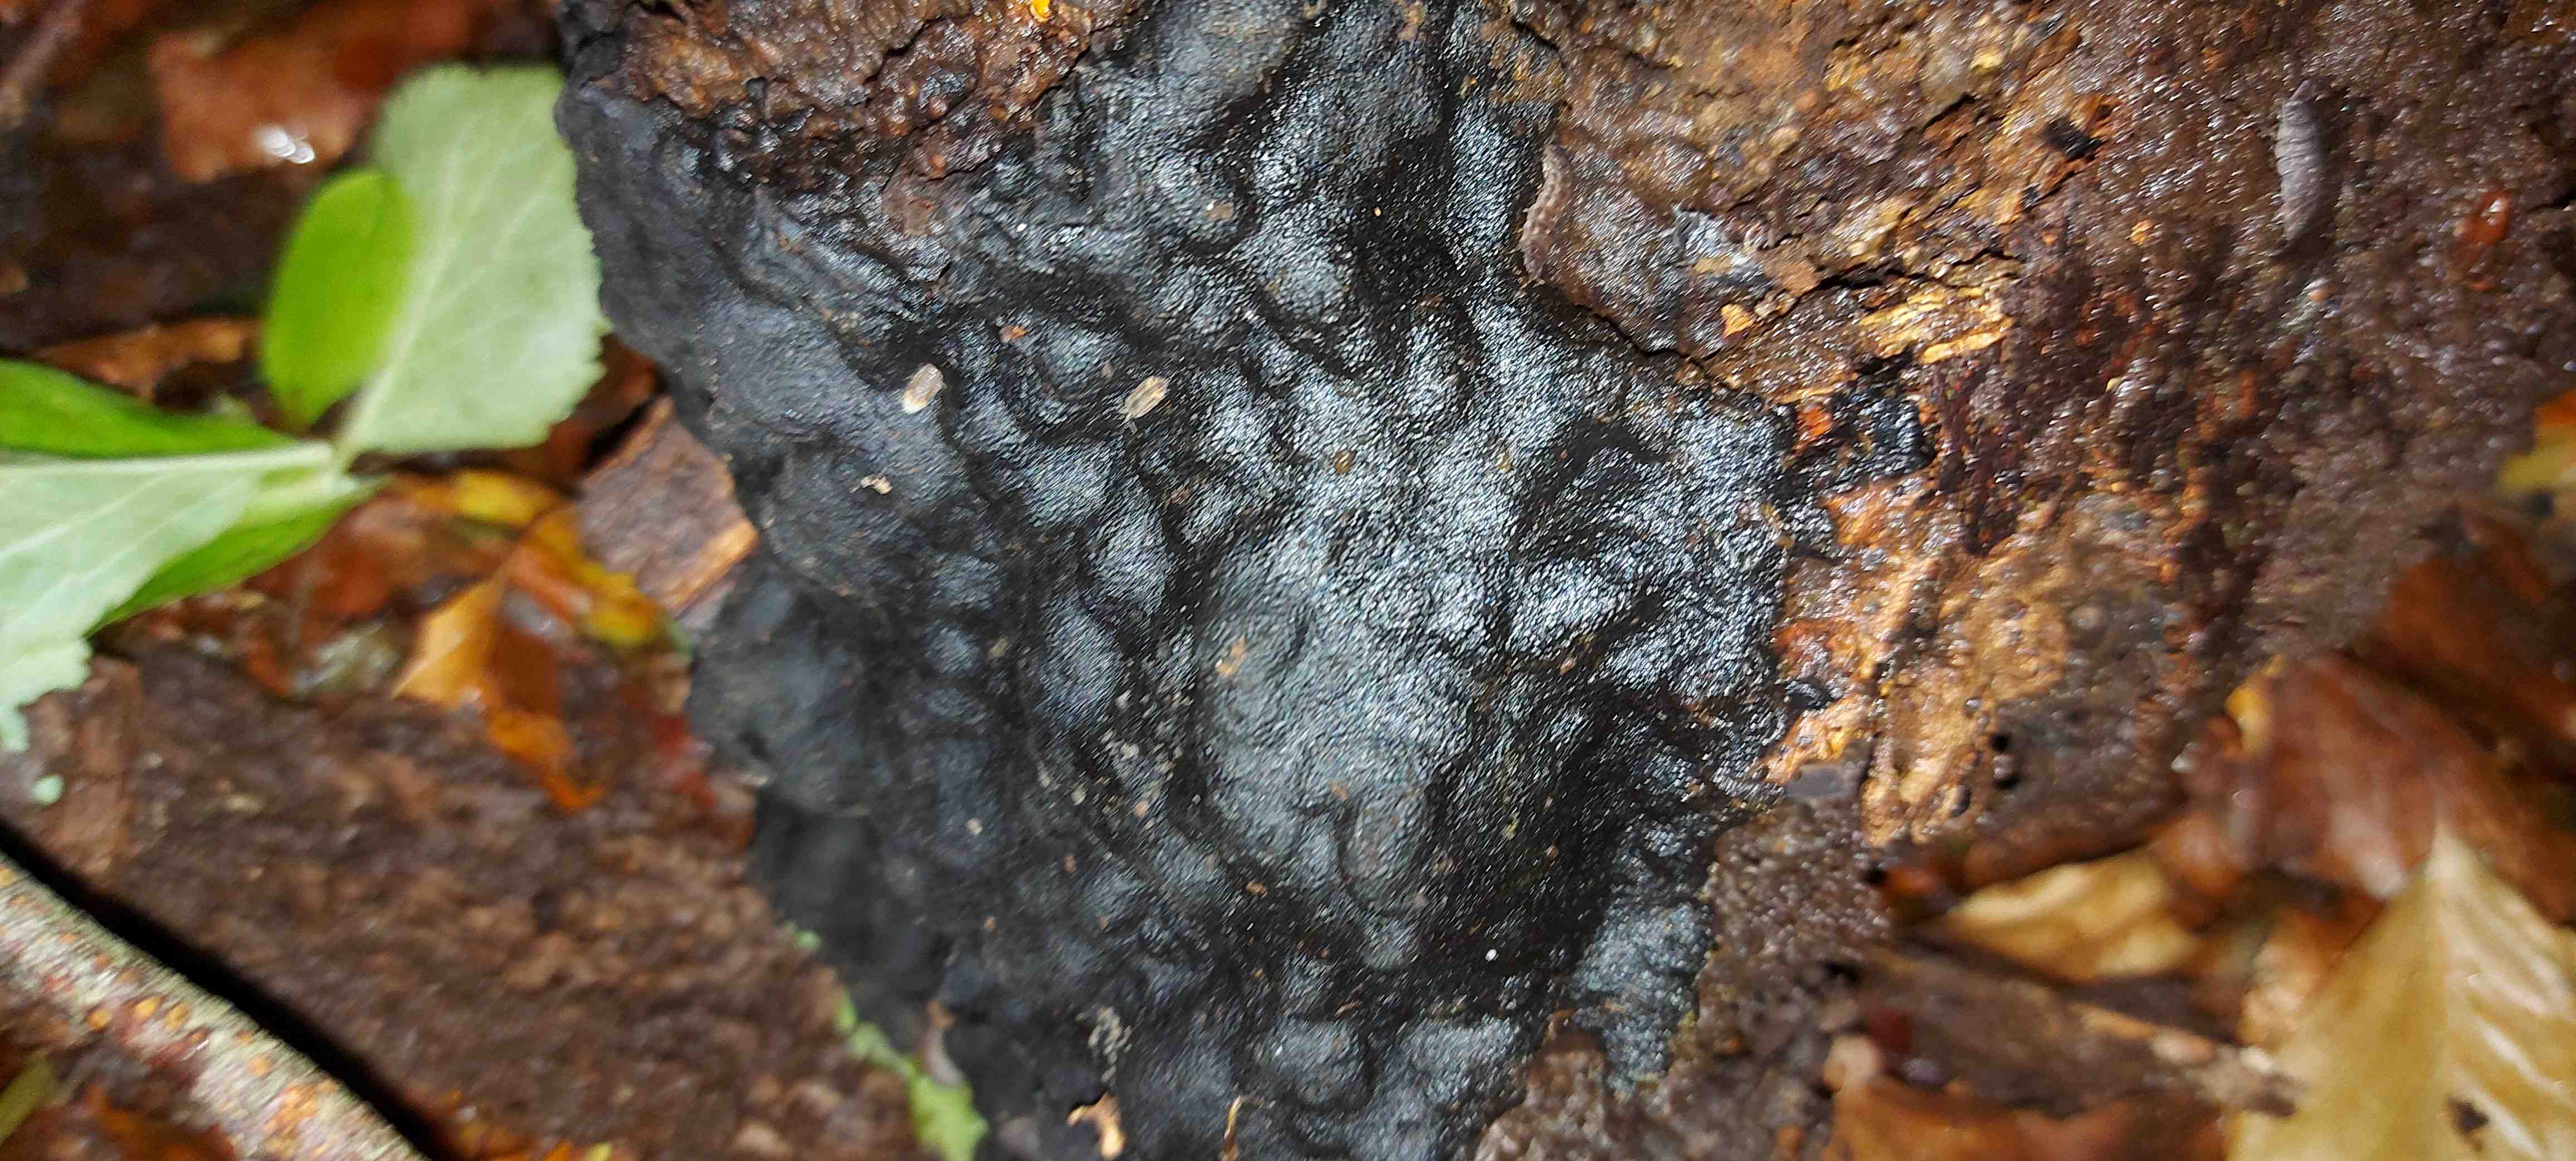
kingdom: Fungi
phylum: Ascomycota
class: Sordariomycetes
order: Xylariales
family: Xylariaceae
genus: Kretzschmaria
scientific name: Kretzschmaria deusta
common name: stor kulsvamp
